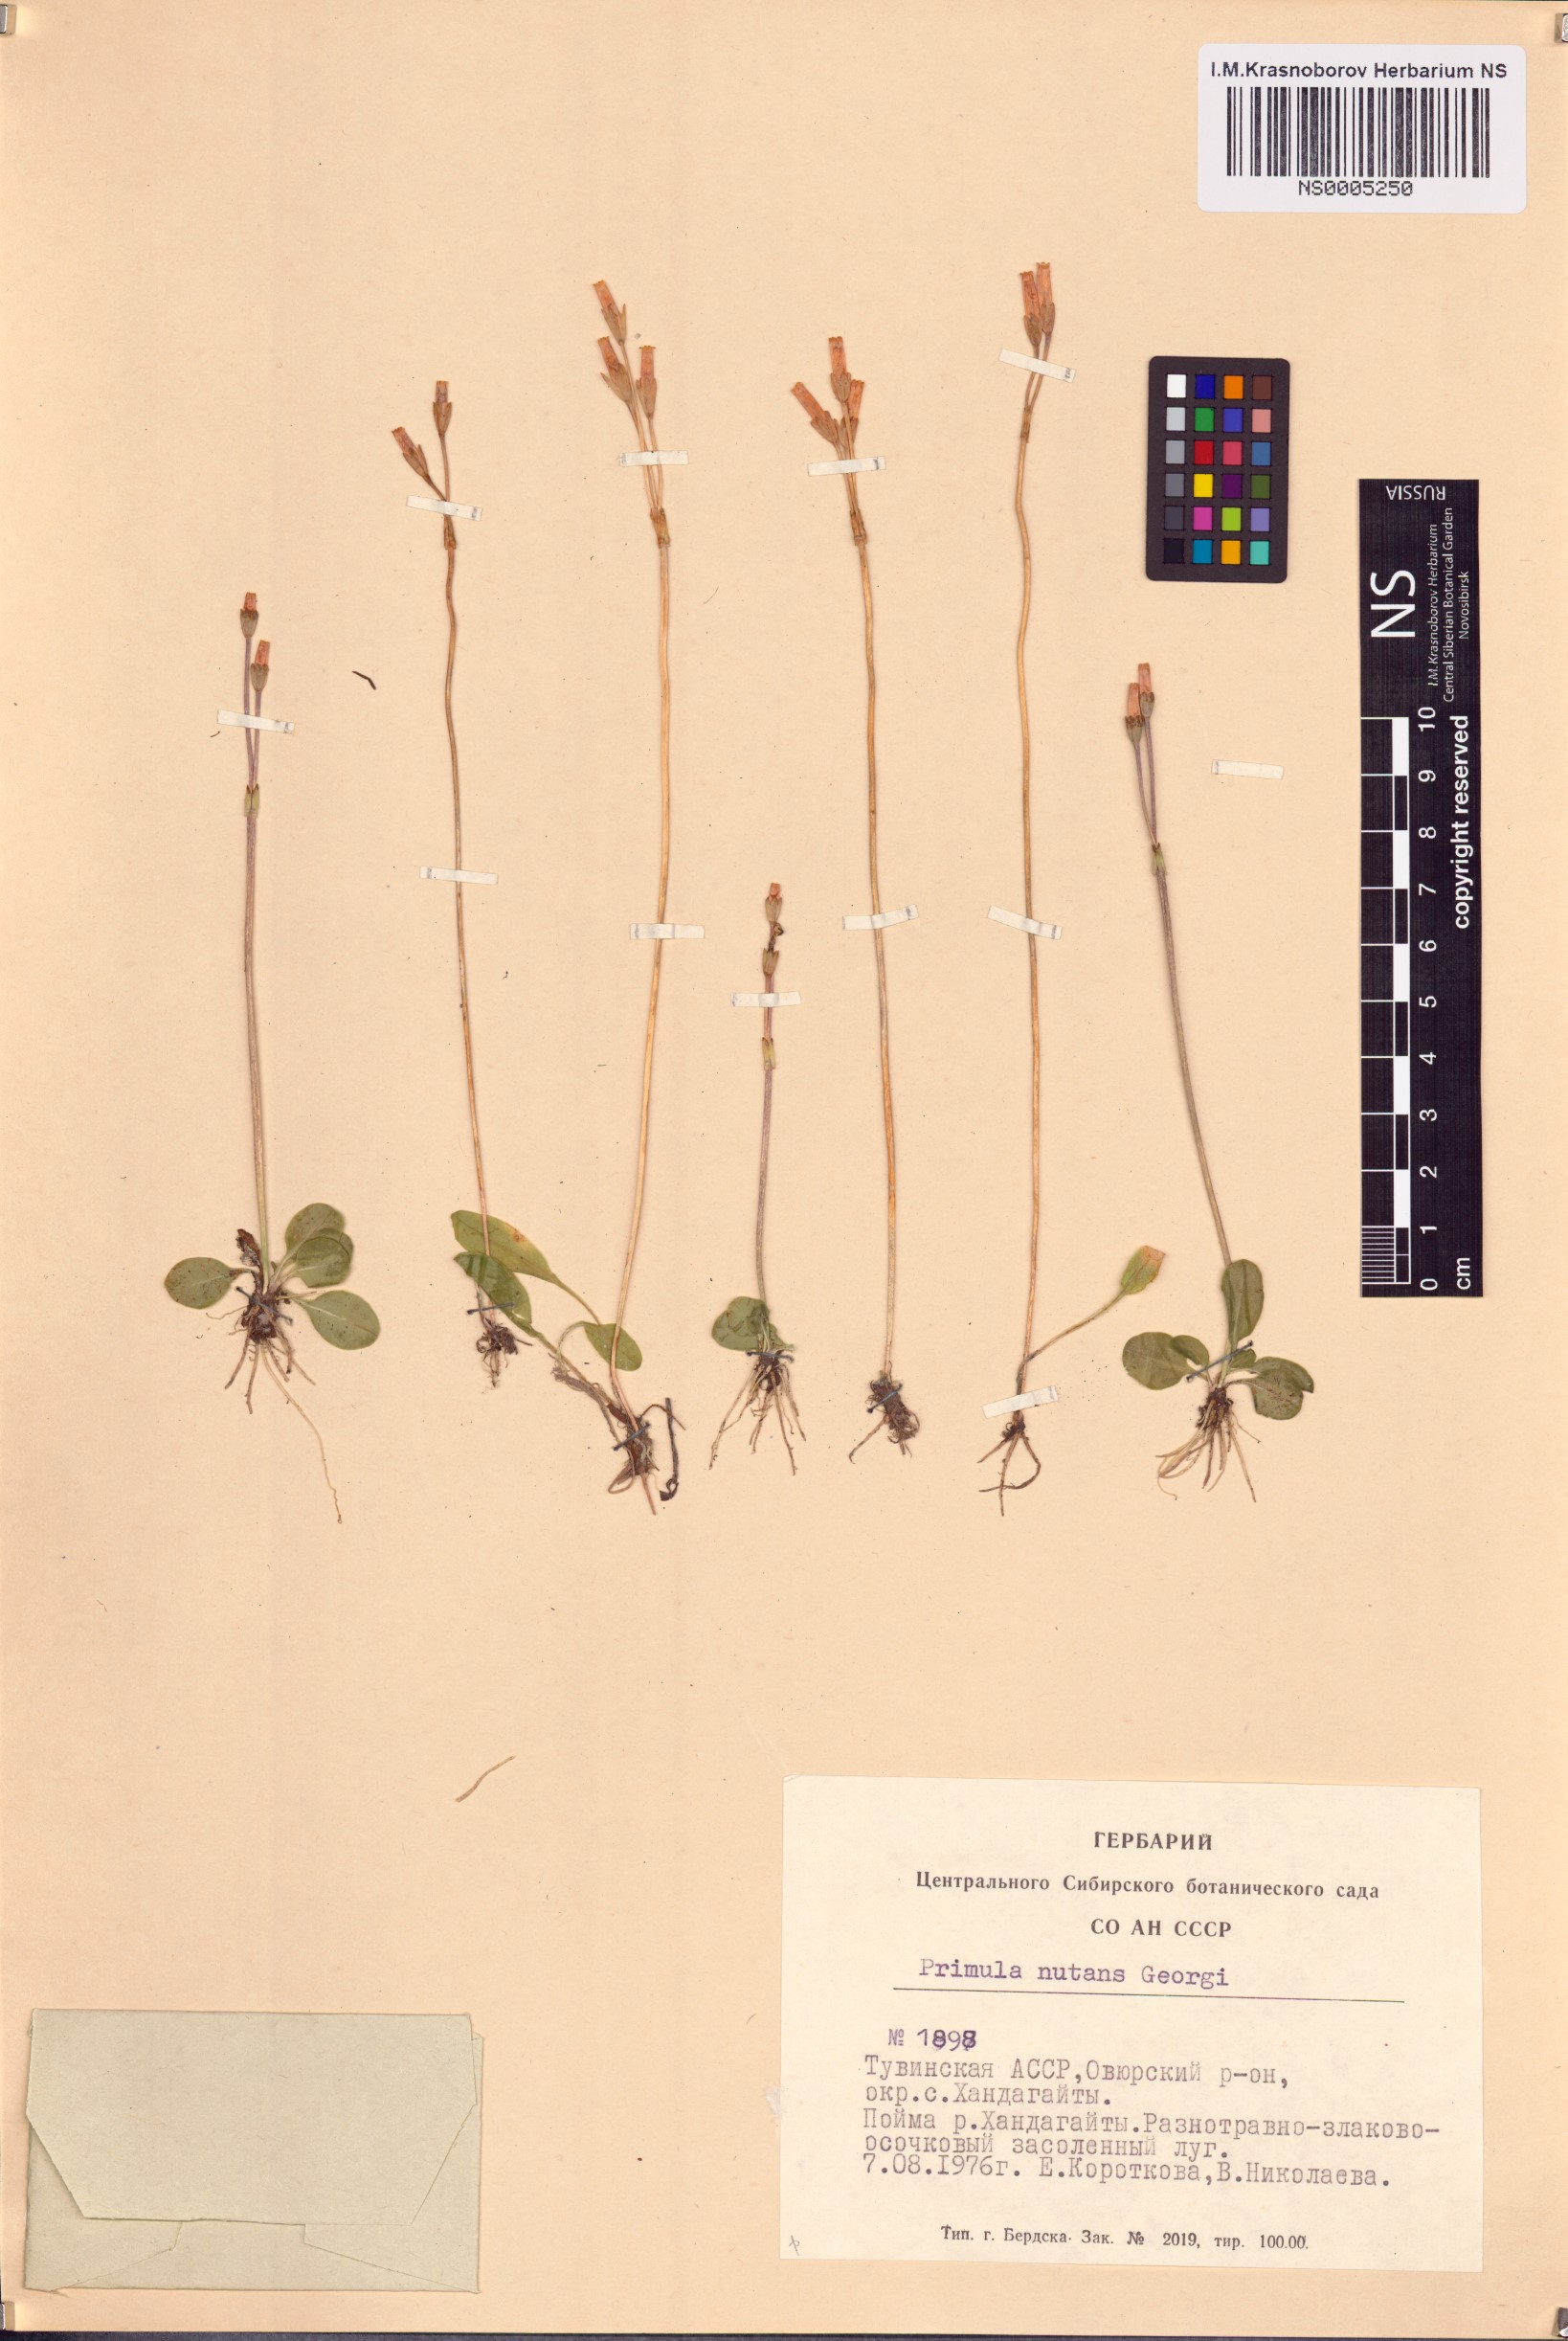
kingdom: Plantae
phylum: Tracheophyta
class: Magnoliopsida
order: Ericales
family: Primulaceae
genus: Primula
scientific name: Primula nutans
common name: Siberian primrose
